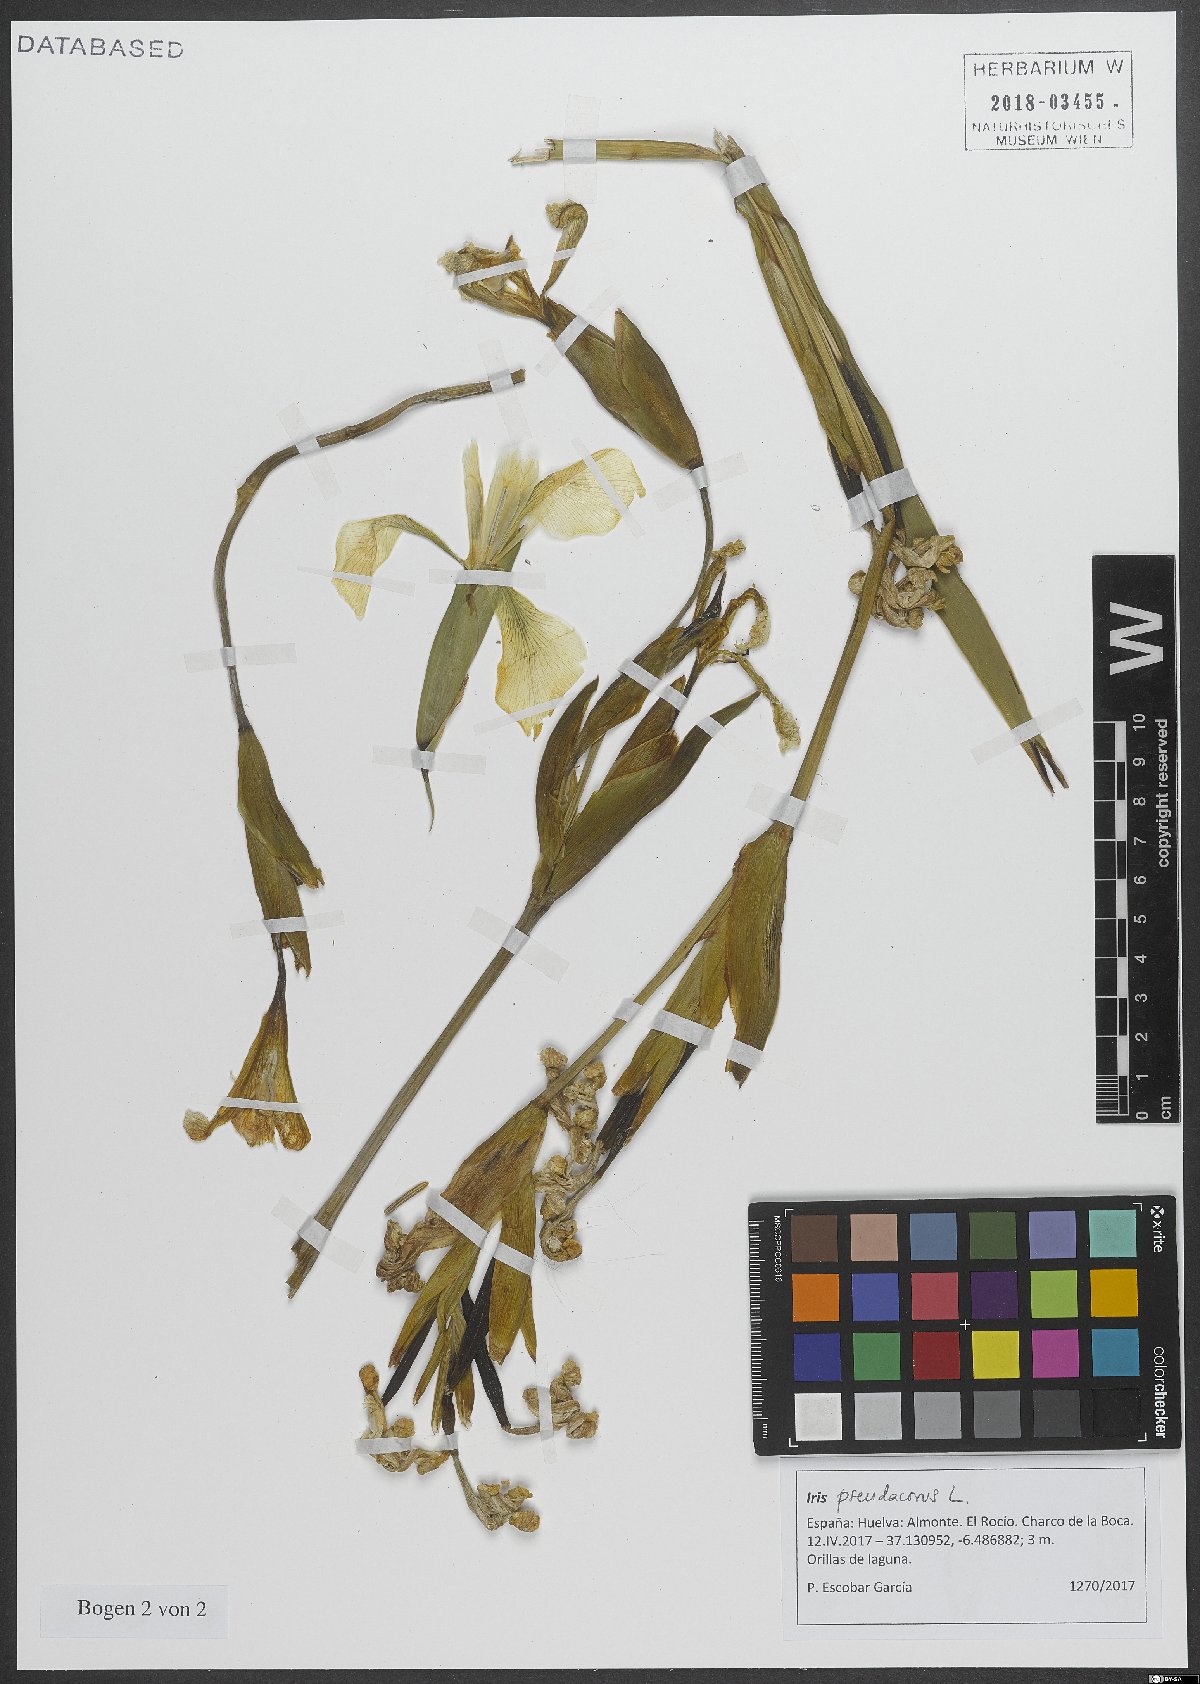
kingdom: Plantae
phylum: Tracheophyta
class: Liliopsida
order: Asparagales
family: Iridaceae
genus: Iris
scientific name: Iris pseudacorus
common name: Yellow flag
